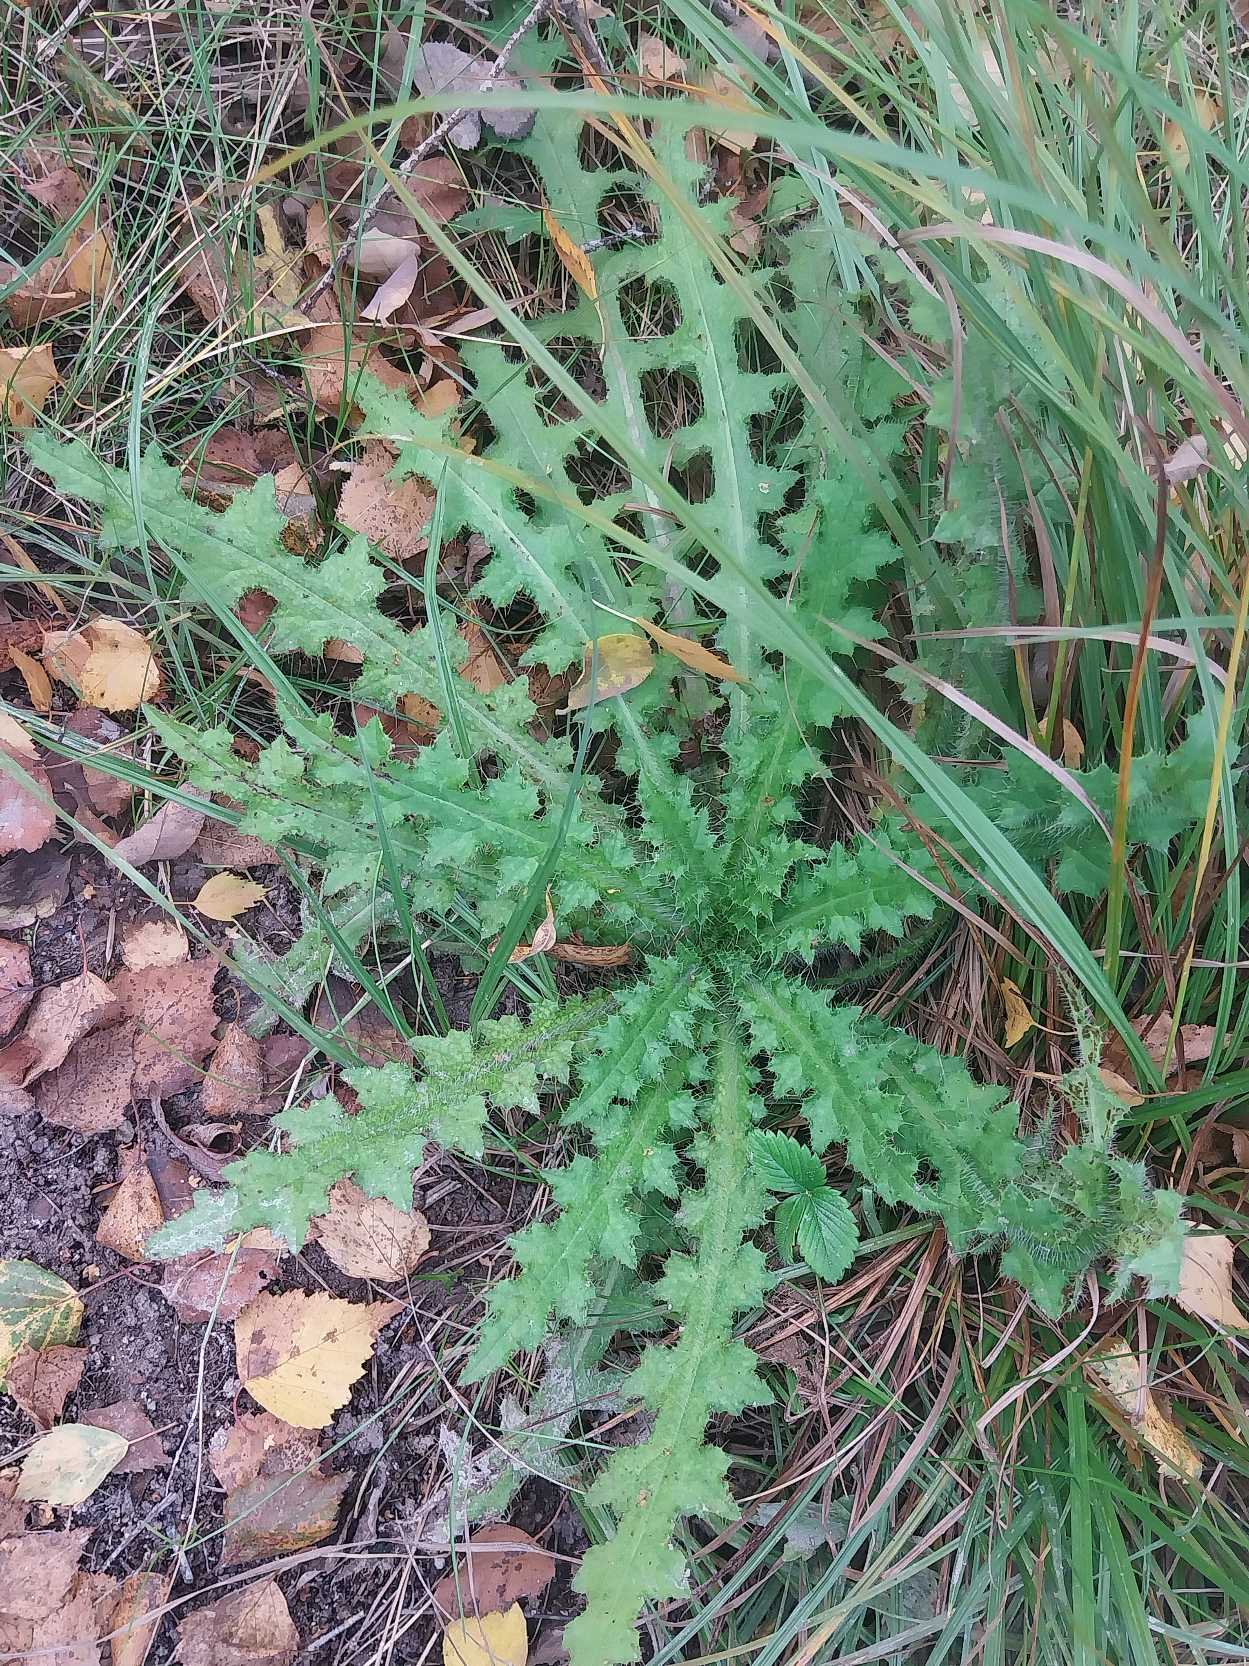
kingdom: Plantae
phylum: Tracheophyta
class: Magnoliopsida
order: Asterales
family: Asteraceae
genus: Cirsium
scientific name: Cirsium palustre
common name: Kær-tidsel
